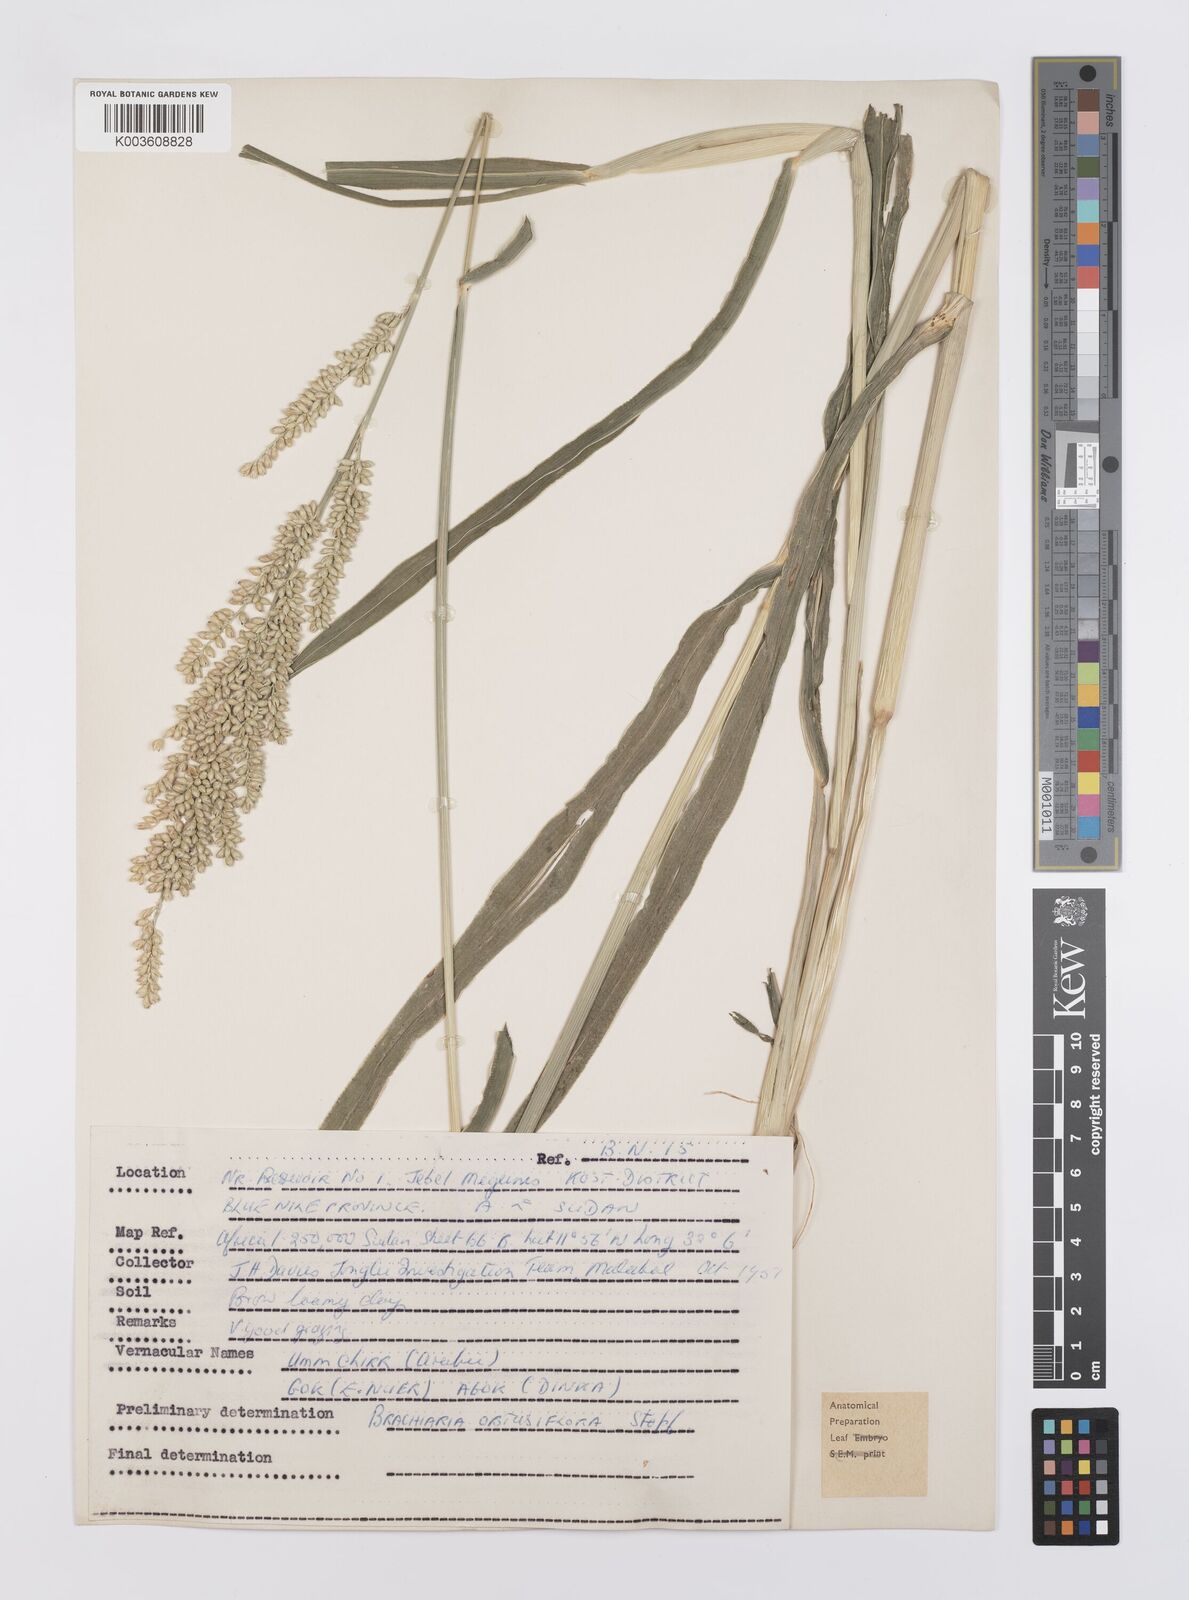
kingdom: Plantae
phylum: Tracheophyta
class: Liliopsida
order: Poales
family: Poaceae
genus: Echinochloa
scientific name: Echinochloa rotundiflora
